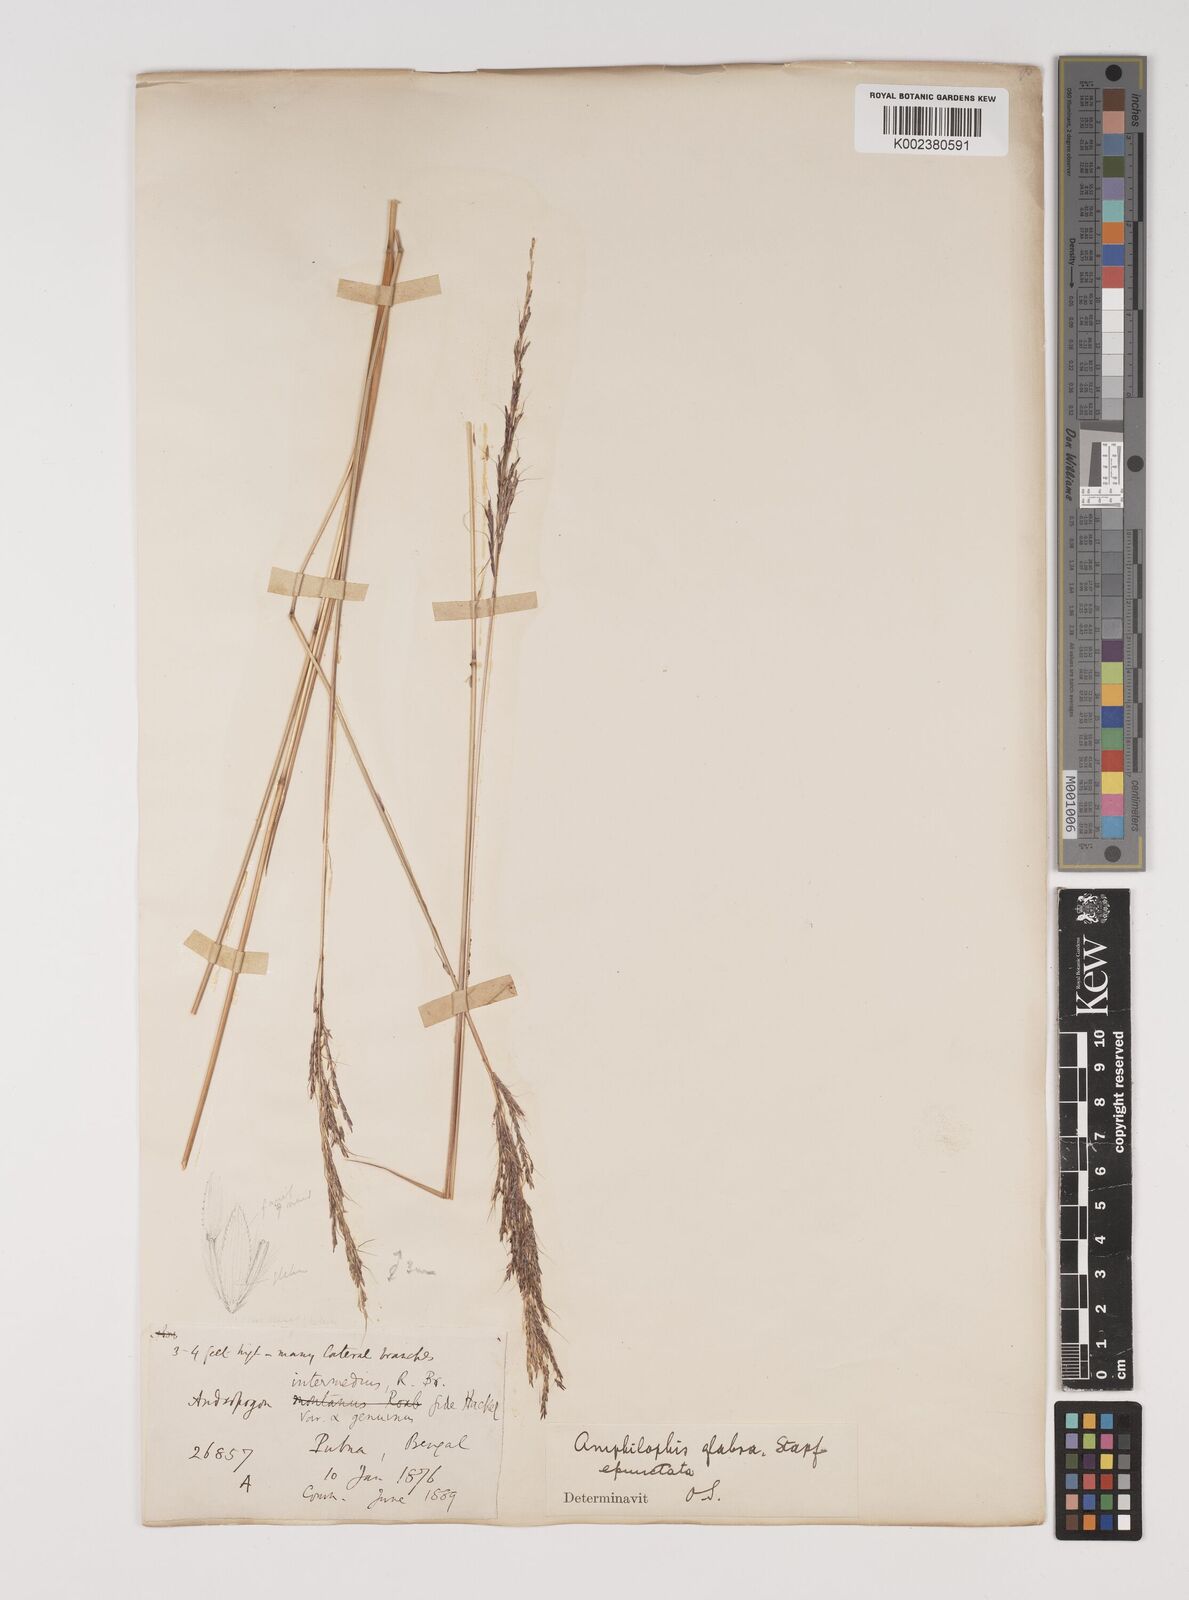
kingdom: Plantae
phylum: Tracheophyta
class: Liliopsida
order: Poales
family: Poaceae
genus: Bothriochloa
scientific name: Bothriochloa bladhii
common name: Caucasian bluestem
